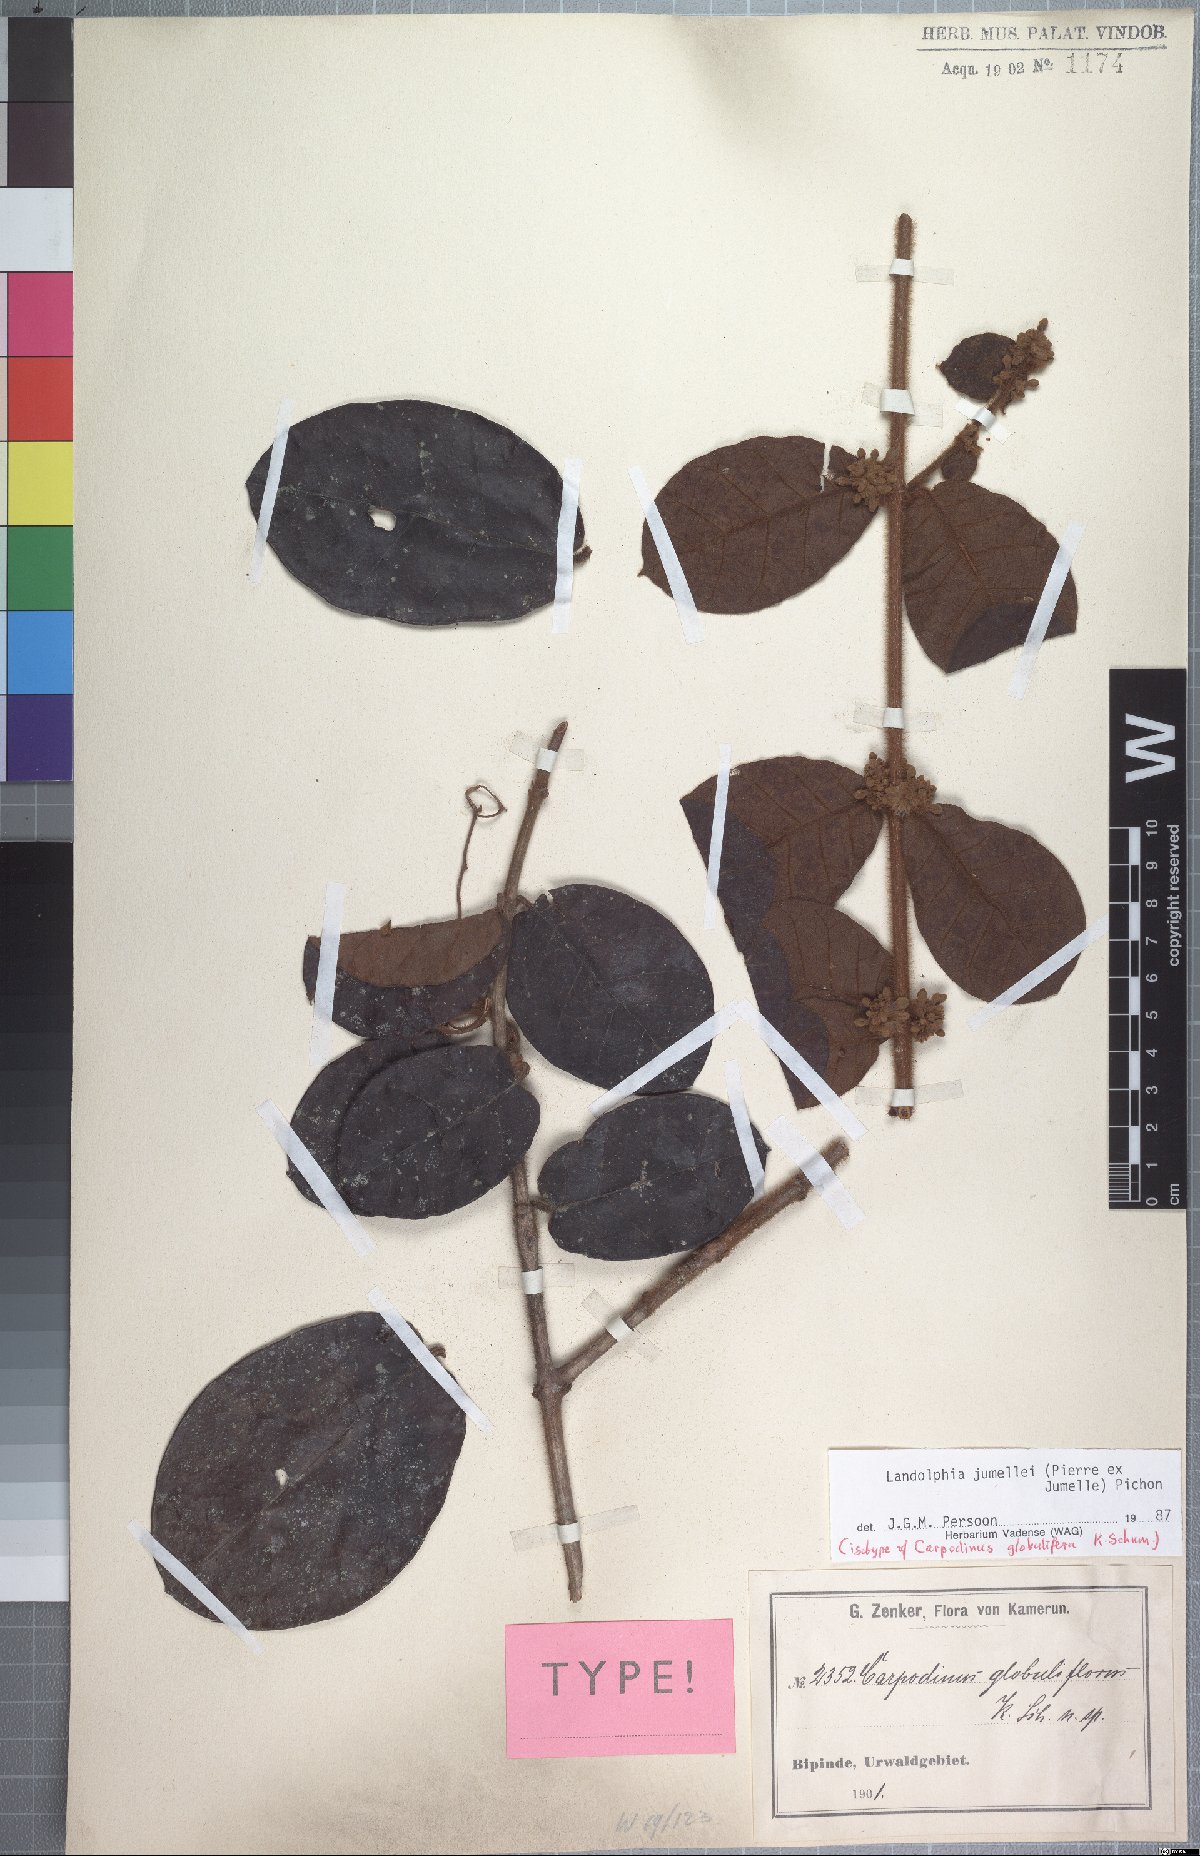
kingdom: Plantae
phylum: Tracheophyta
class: Magnoliopsida
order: Gentianales
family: Apocynaceae
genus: Landolphia
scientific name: Landolphia jumellei
